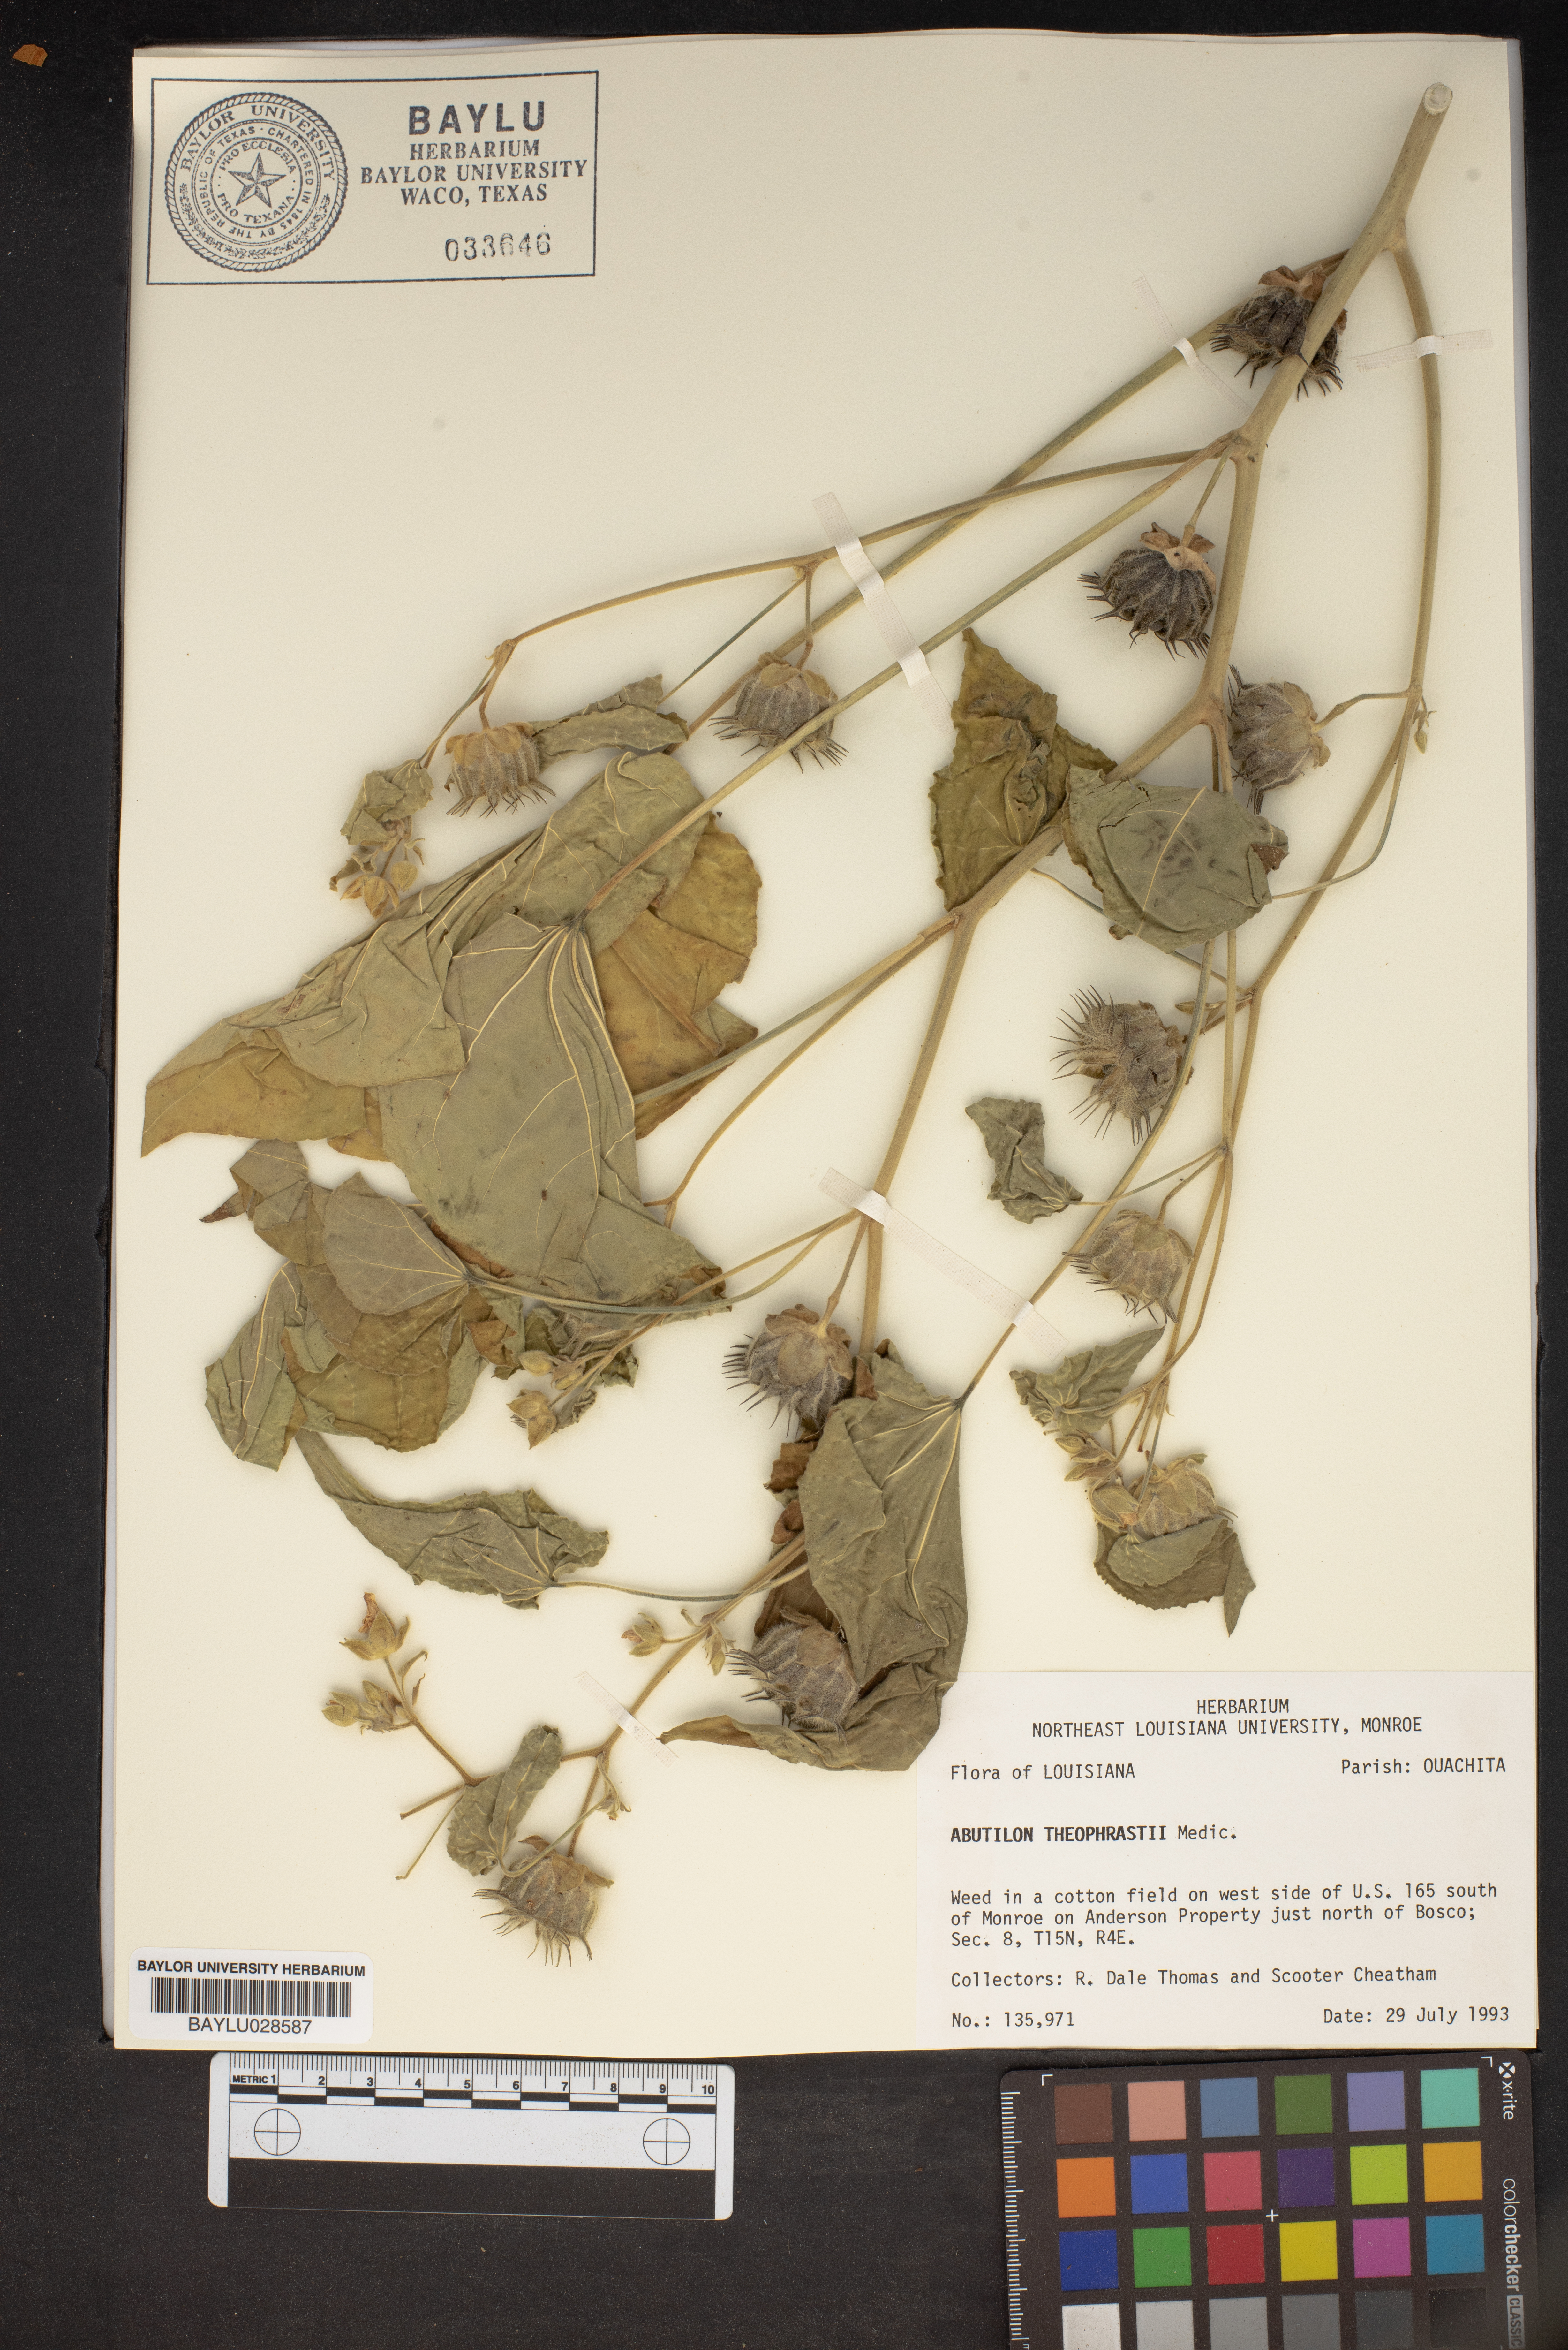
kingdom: Plantae
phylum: Tracheophyta
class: Magnoliopsida
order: Malvales
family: Malvaceae
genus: Abutilon
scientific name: Abutilon theophrasti
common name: Velvetleaf
